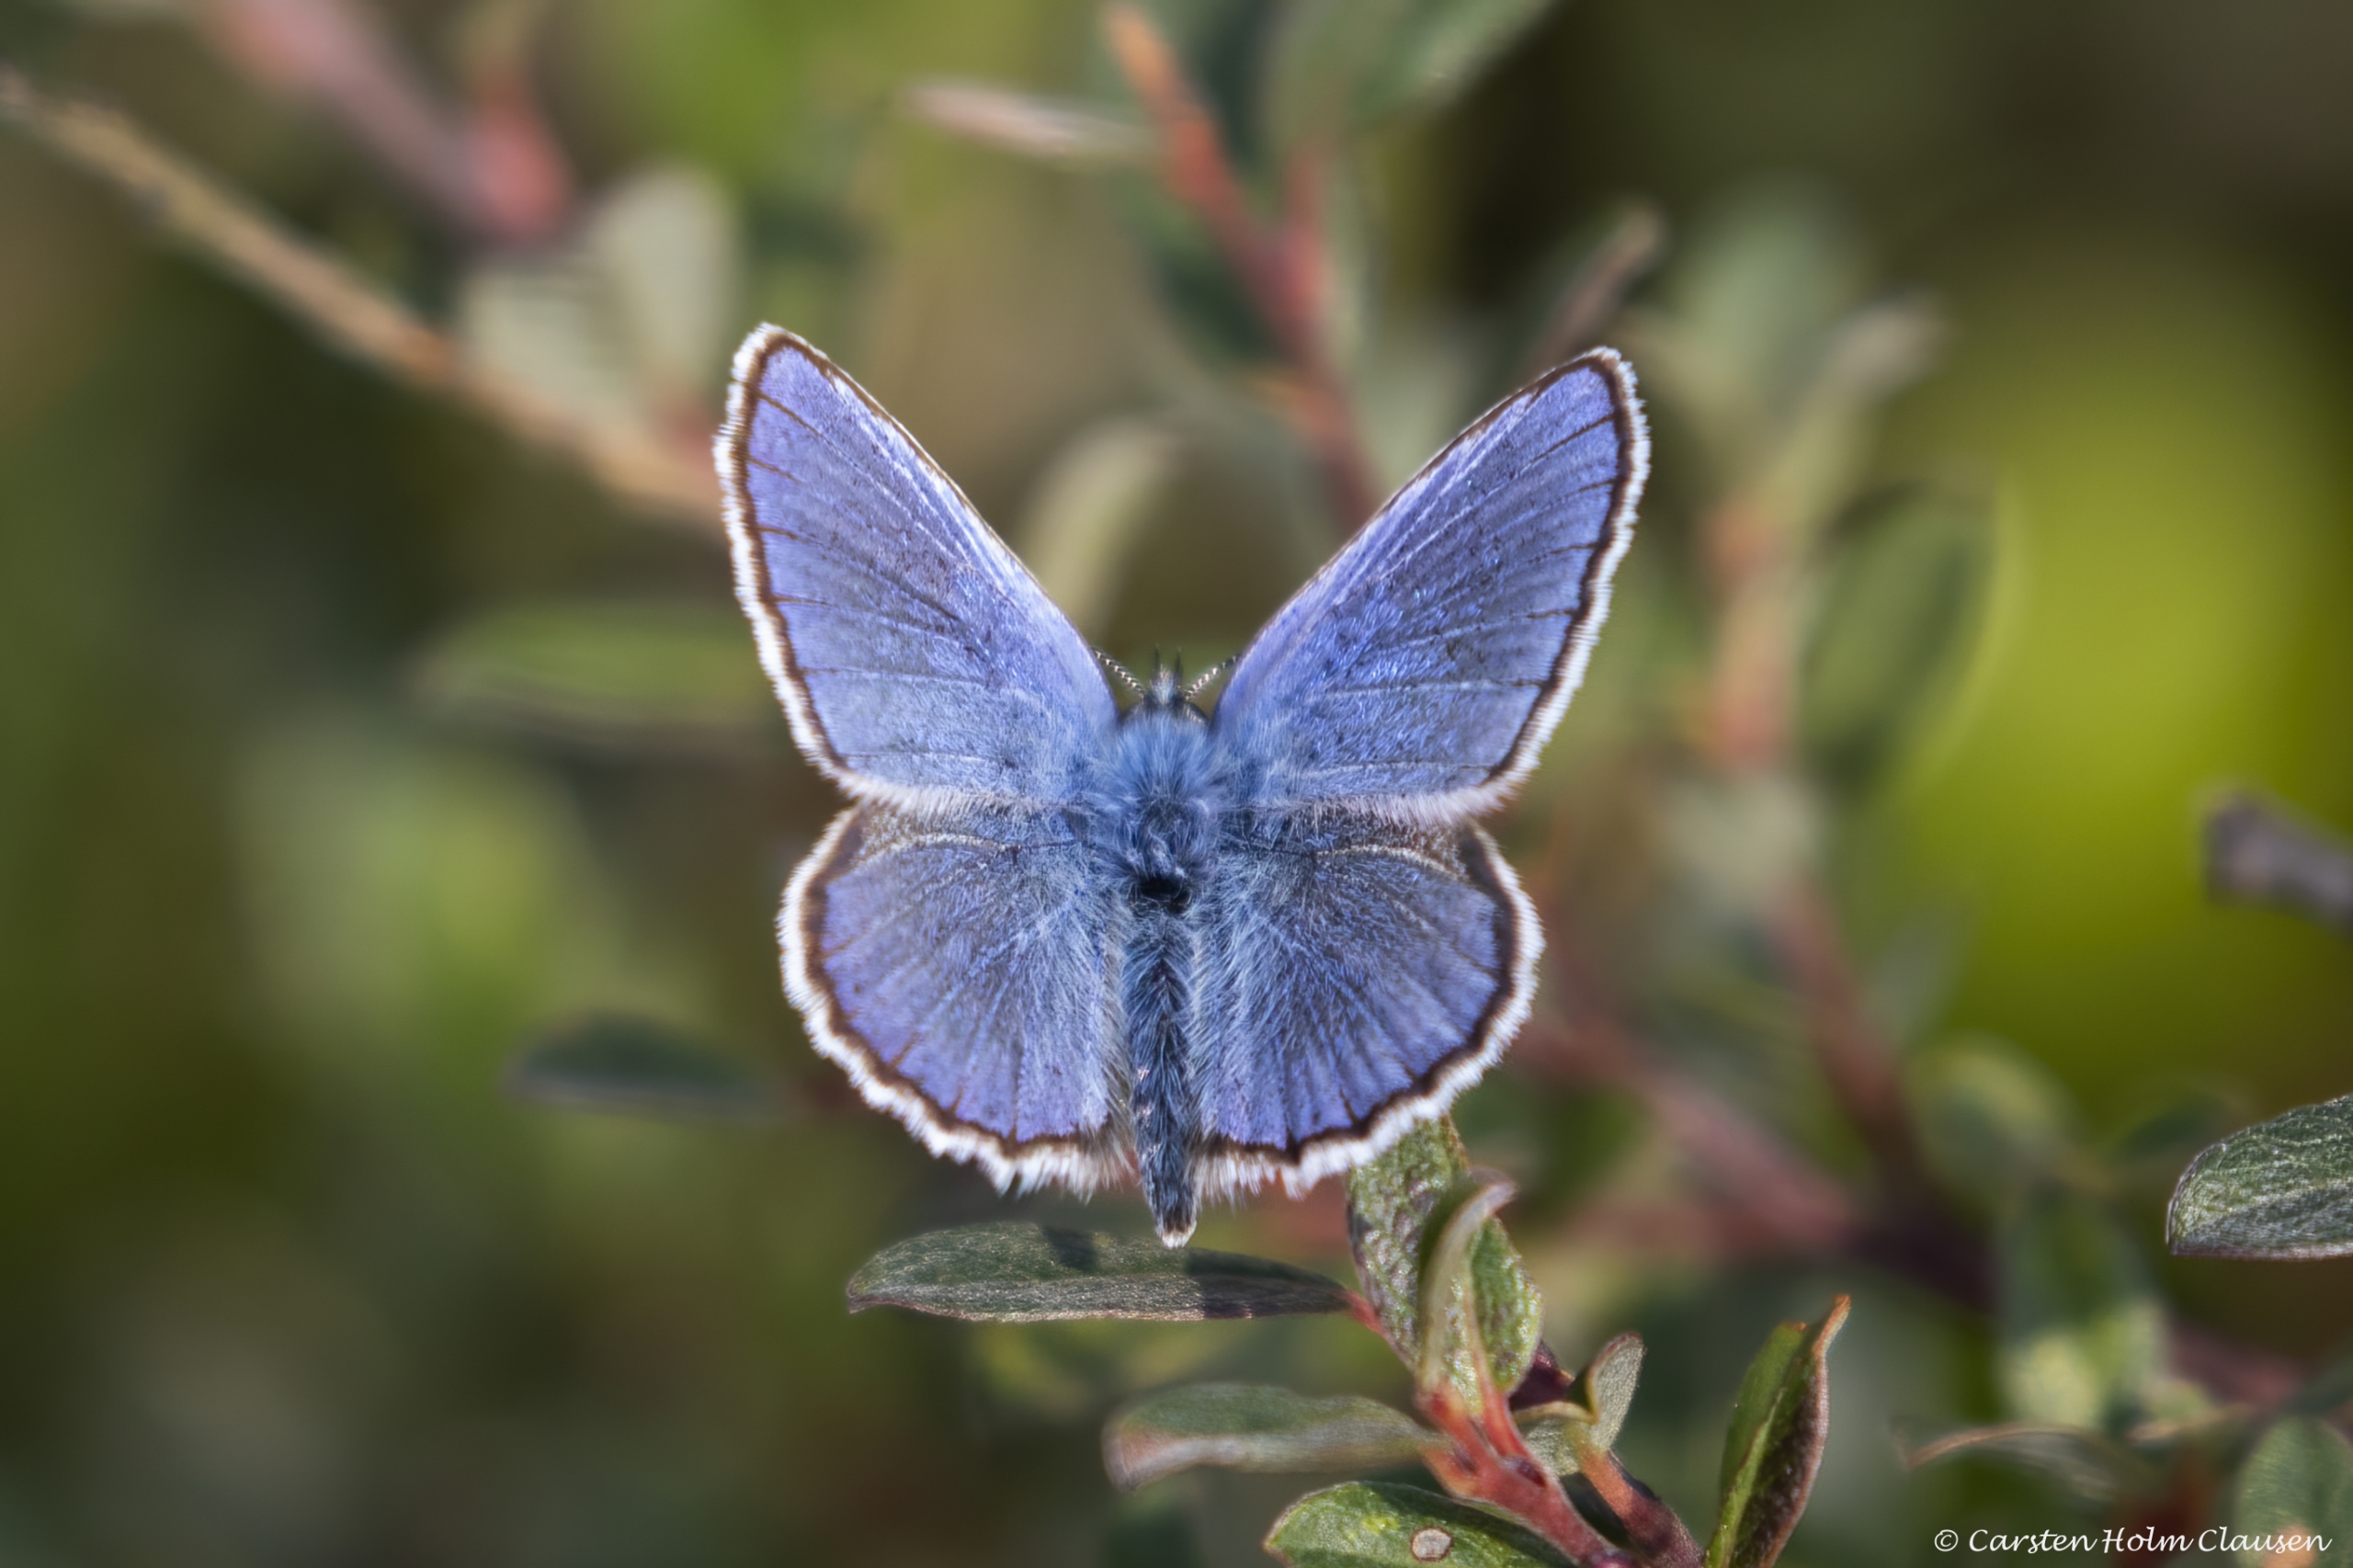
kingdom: Animalia
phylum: Arthropoda
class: Insecta
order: Lepidoptera
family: Lycaenidae
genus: Lycaeides
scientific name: Lycaeides idas
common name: Foranderlig blåfugl
